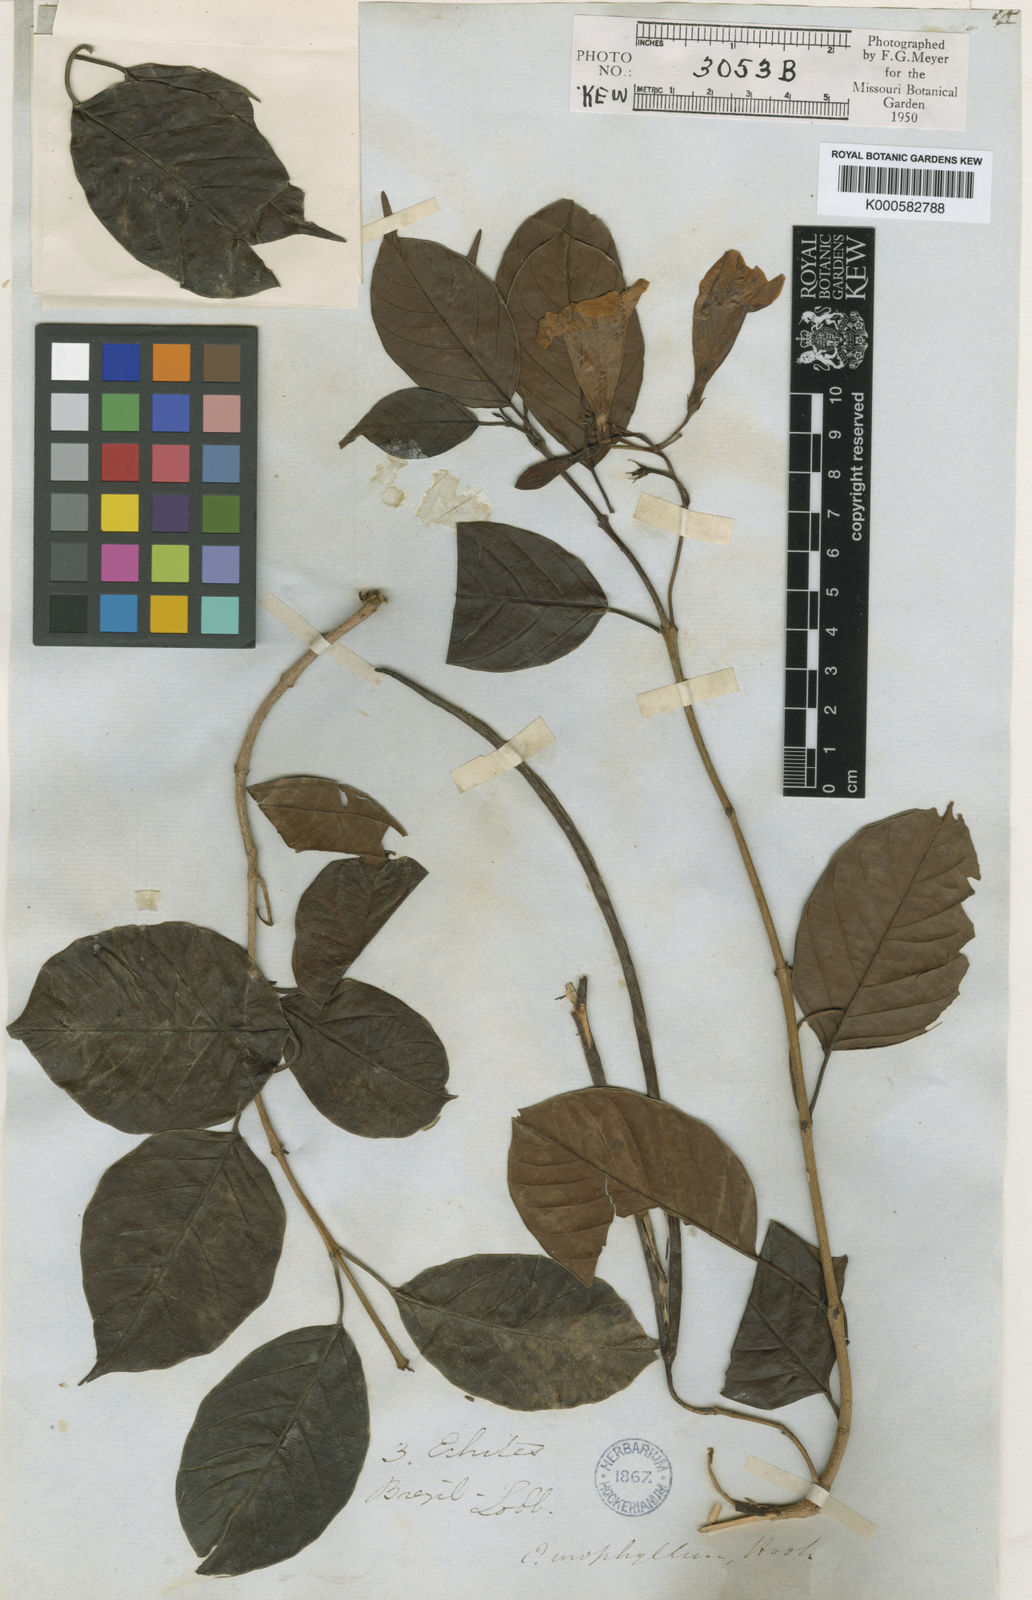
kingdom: Plantae
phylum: Tracheophyta
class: Magnoliopsida
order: Gentianales
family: Apocynaceae
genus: Mandevilla
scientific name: Mandevilla urophylla
